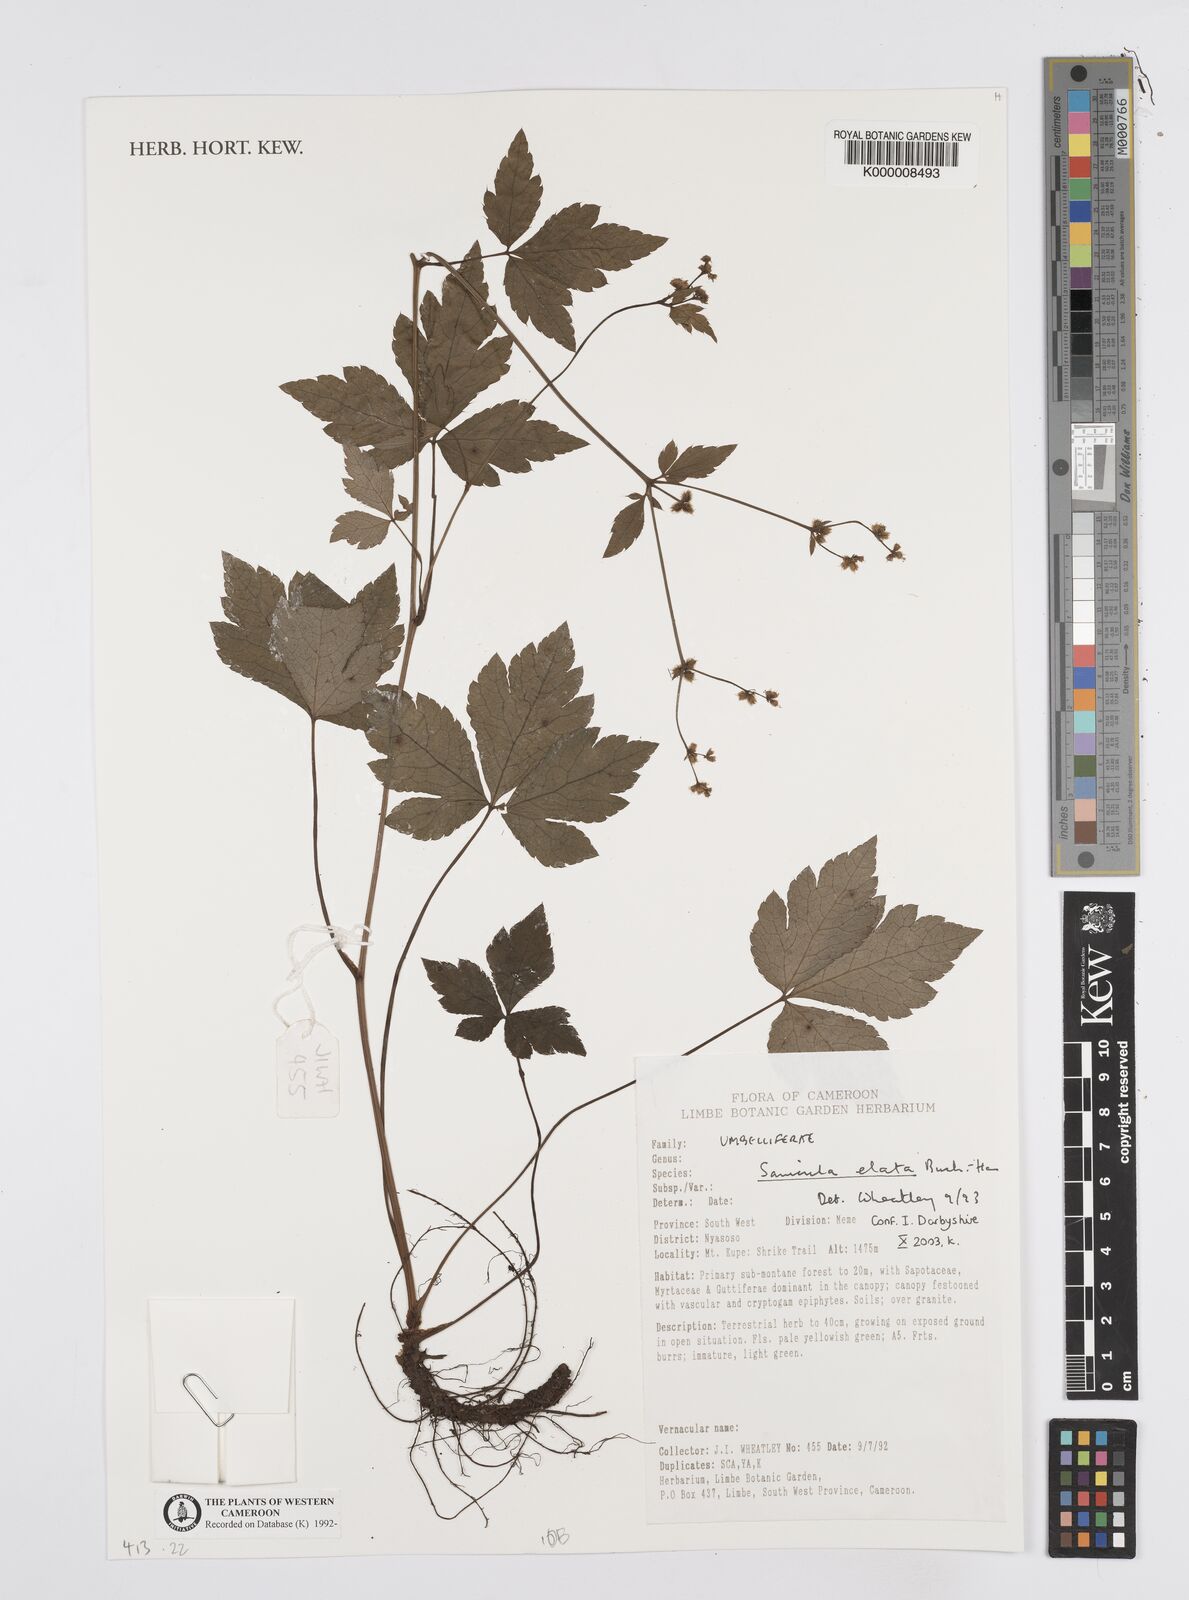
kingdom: Plantae
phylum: Tracheophyta
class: Magnoliopsida
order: Apiales
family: Apiaceae
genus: Sanicula
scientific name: Sanicula
